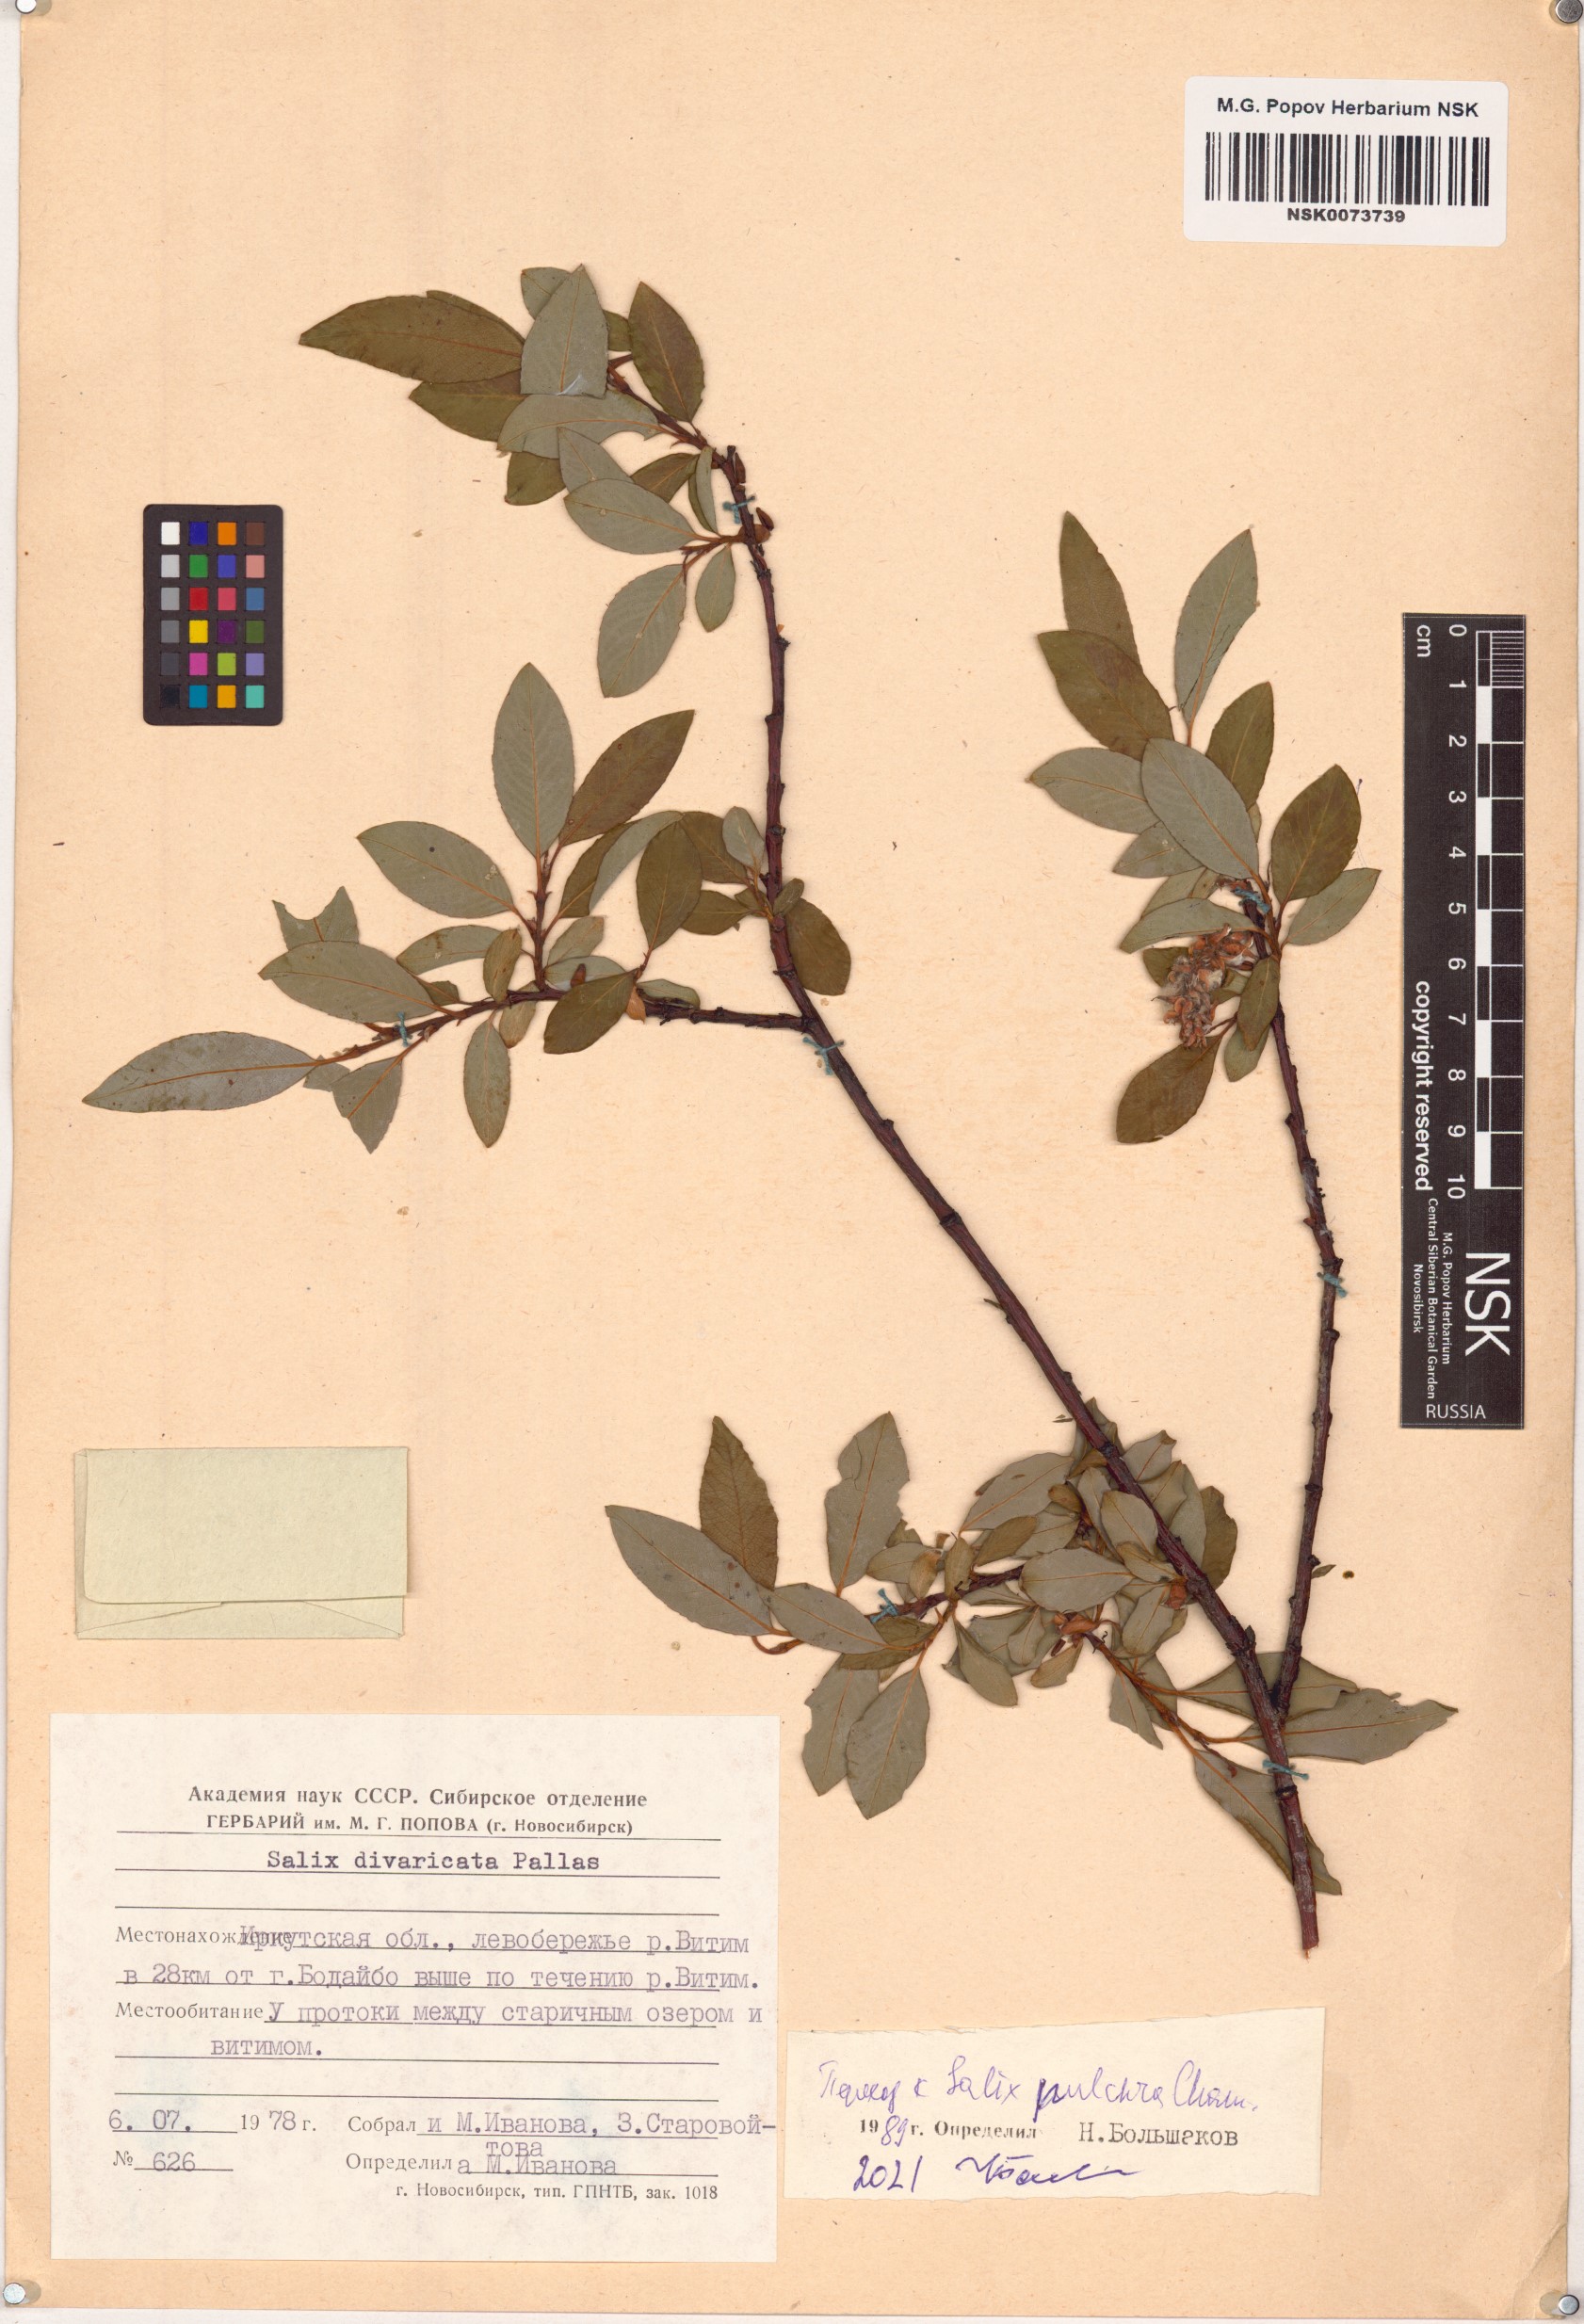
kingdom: Plantae
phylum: Tracheophyta
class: Magnoliopsida
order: Malpighiales
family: Salicaceae
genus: Salix
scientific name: Salix pulchra
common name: Diamond-leaved willow
